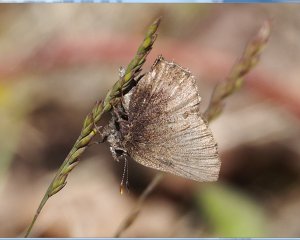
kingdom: Animalia
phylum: Arthropoda
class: Insecta
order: Lepidoptera
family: Lycaenidae
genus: Incisalia
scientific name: Incisalia irioides
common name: Brown Elfin
